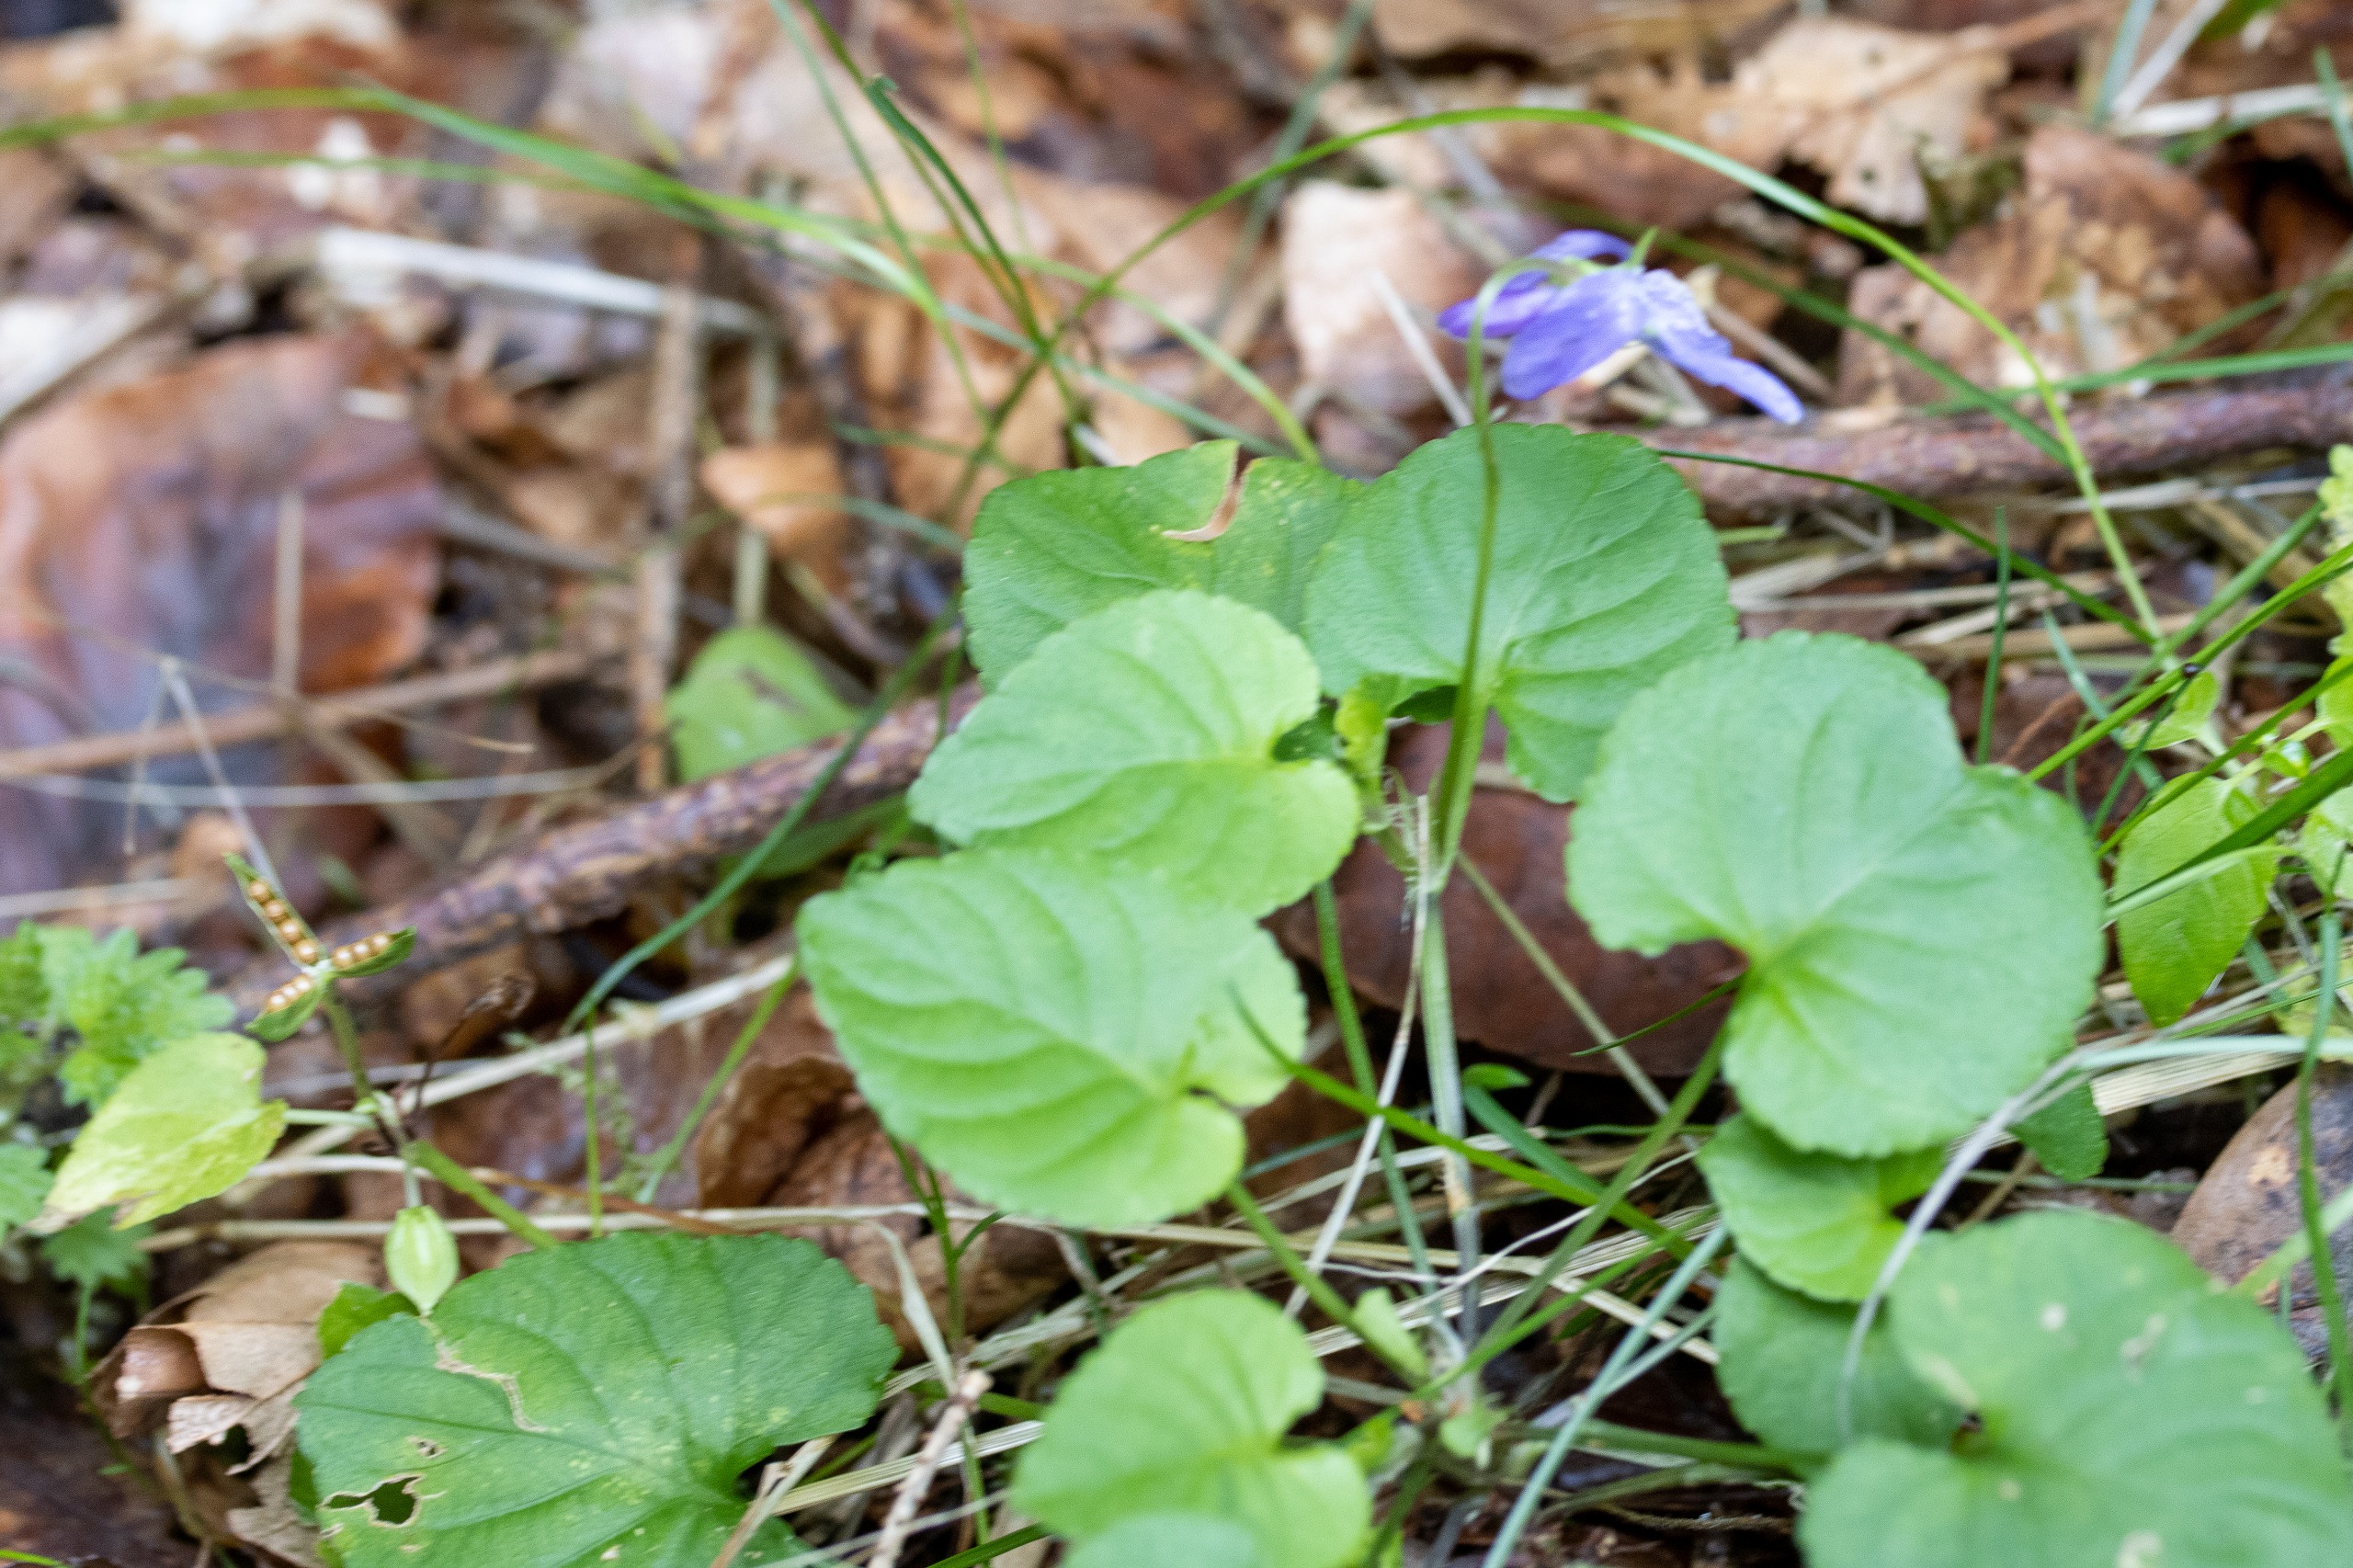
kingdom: Plantae
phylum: Tracheophyta
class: Magnoliopsida
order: Malpighiales
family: Violaceae
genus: Viola
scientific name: Viola reichenbachiana
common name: Skov-viol
